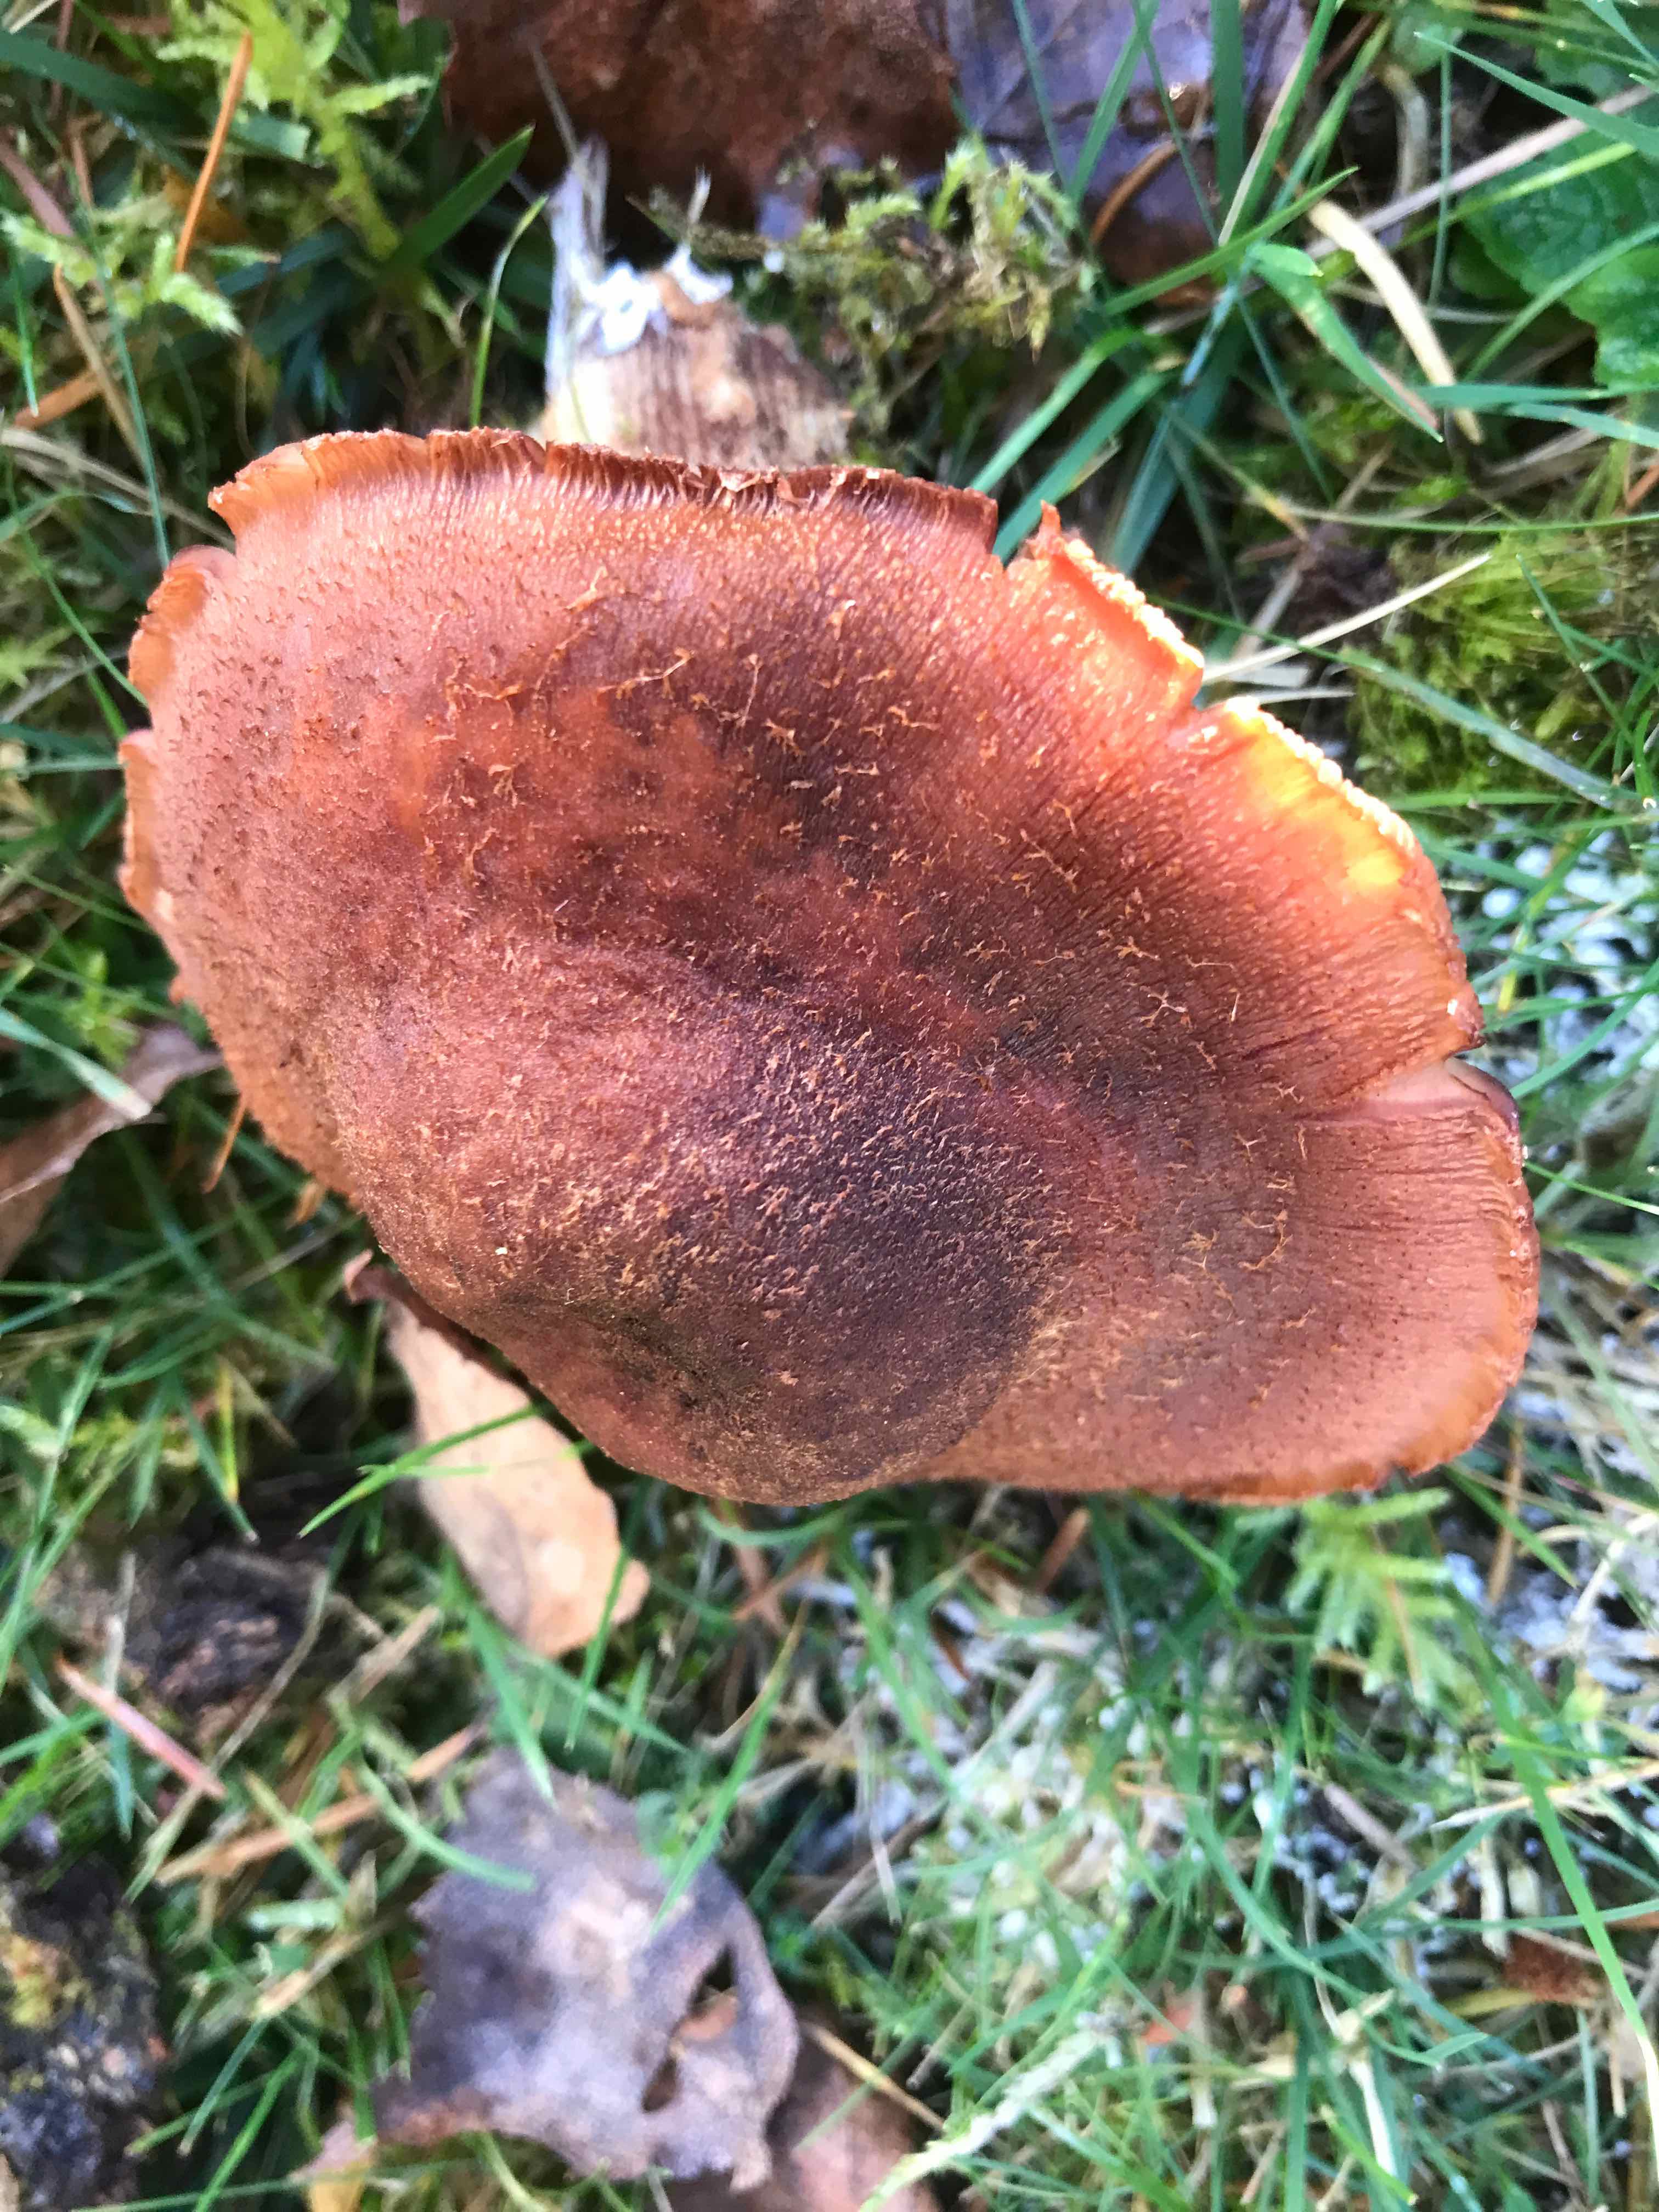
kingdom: Fungi
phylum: Basidiomycota
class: Agaricomycetes
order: Agaricales
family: Physalacriaceae
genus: Armillaria
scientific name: Armillaria ostoyae
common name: mørk honningsvamp
